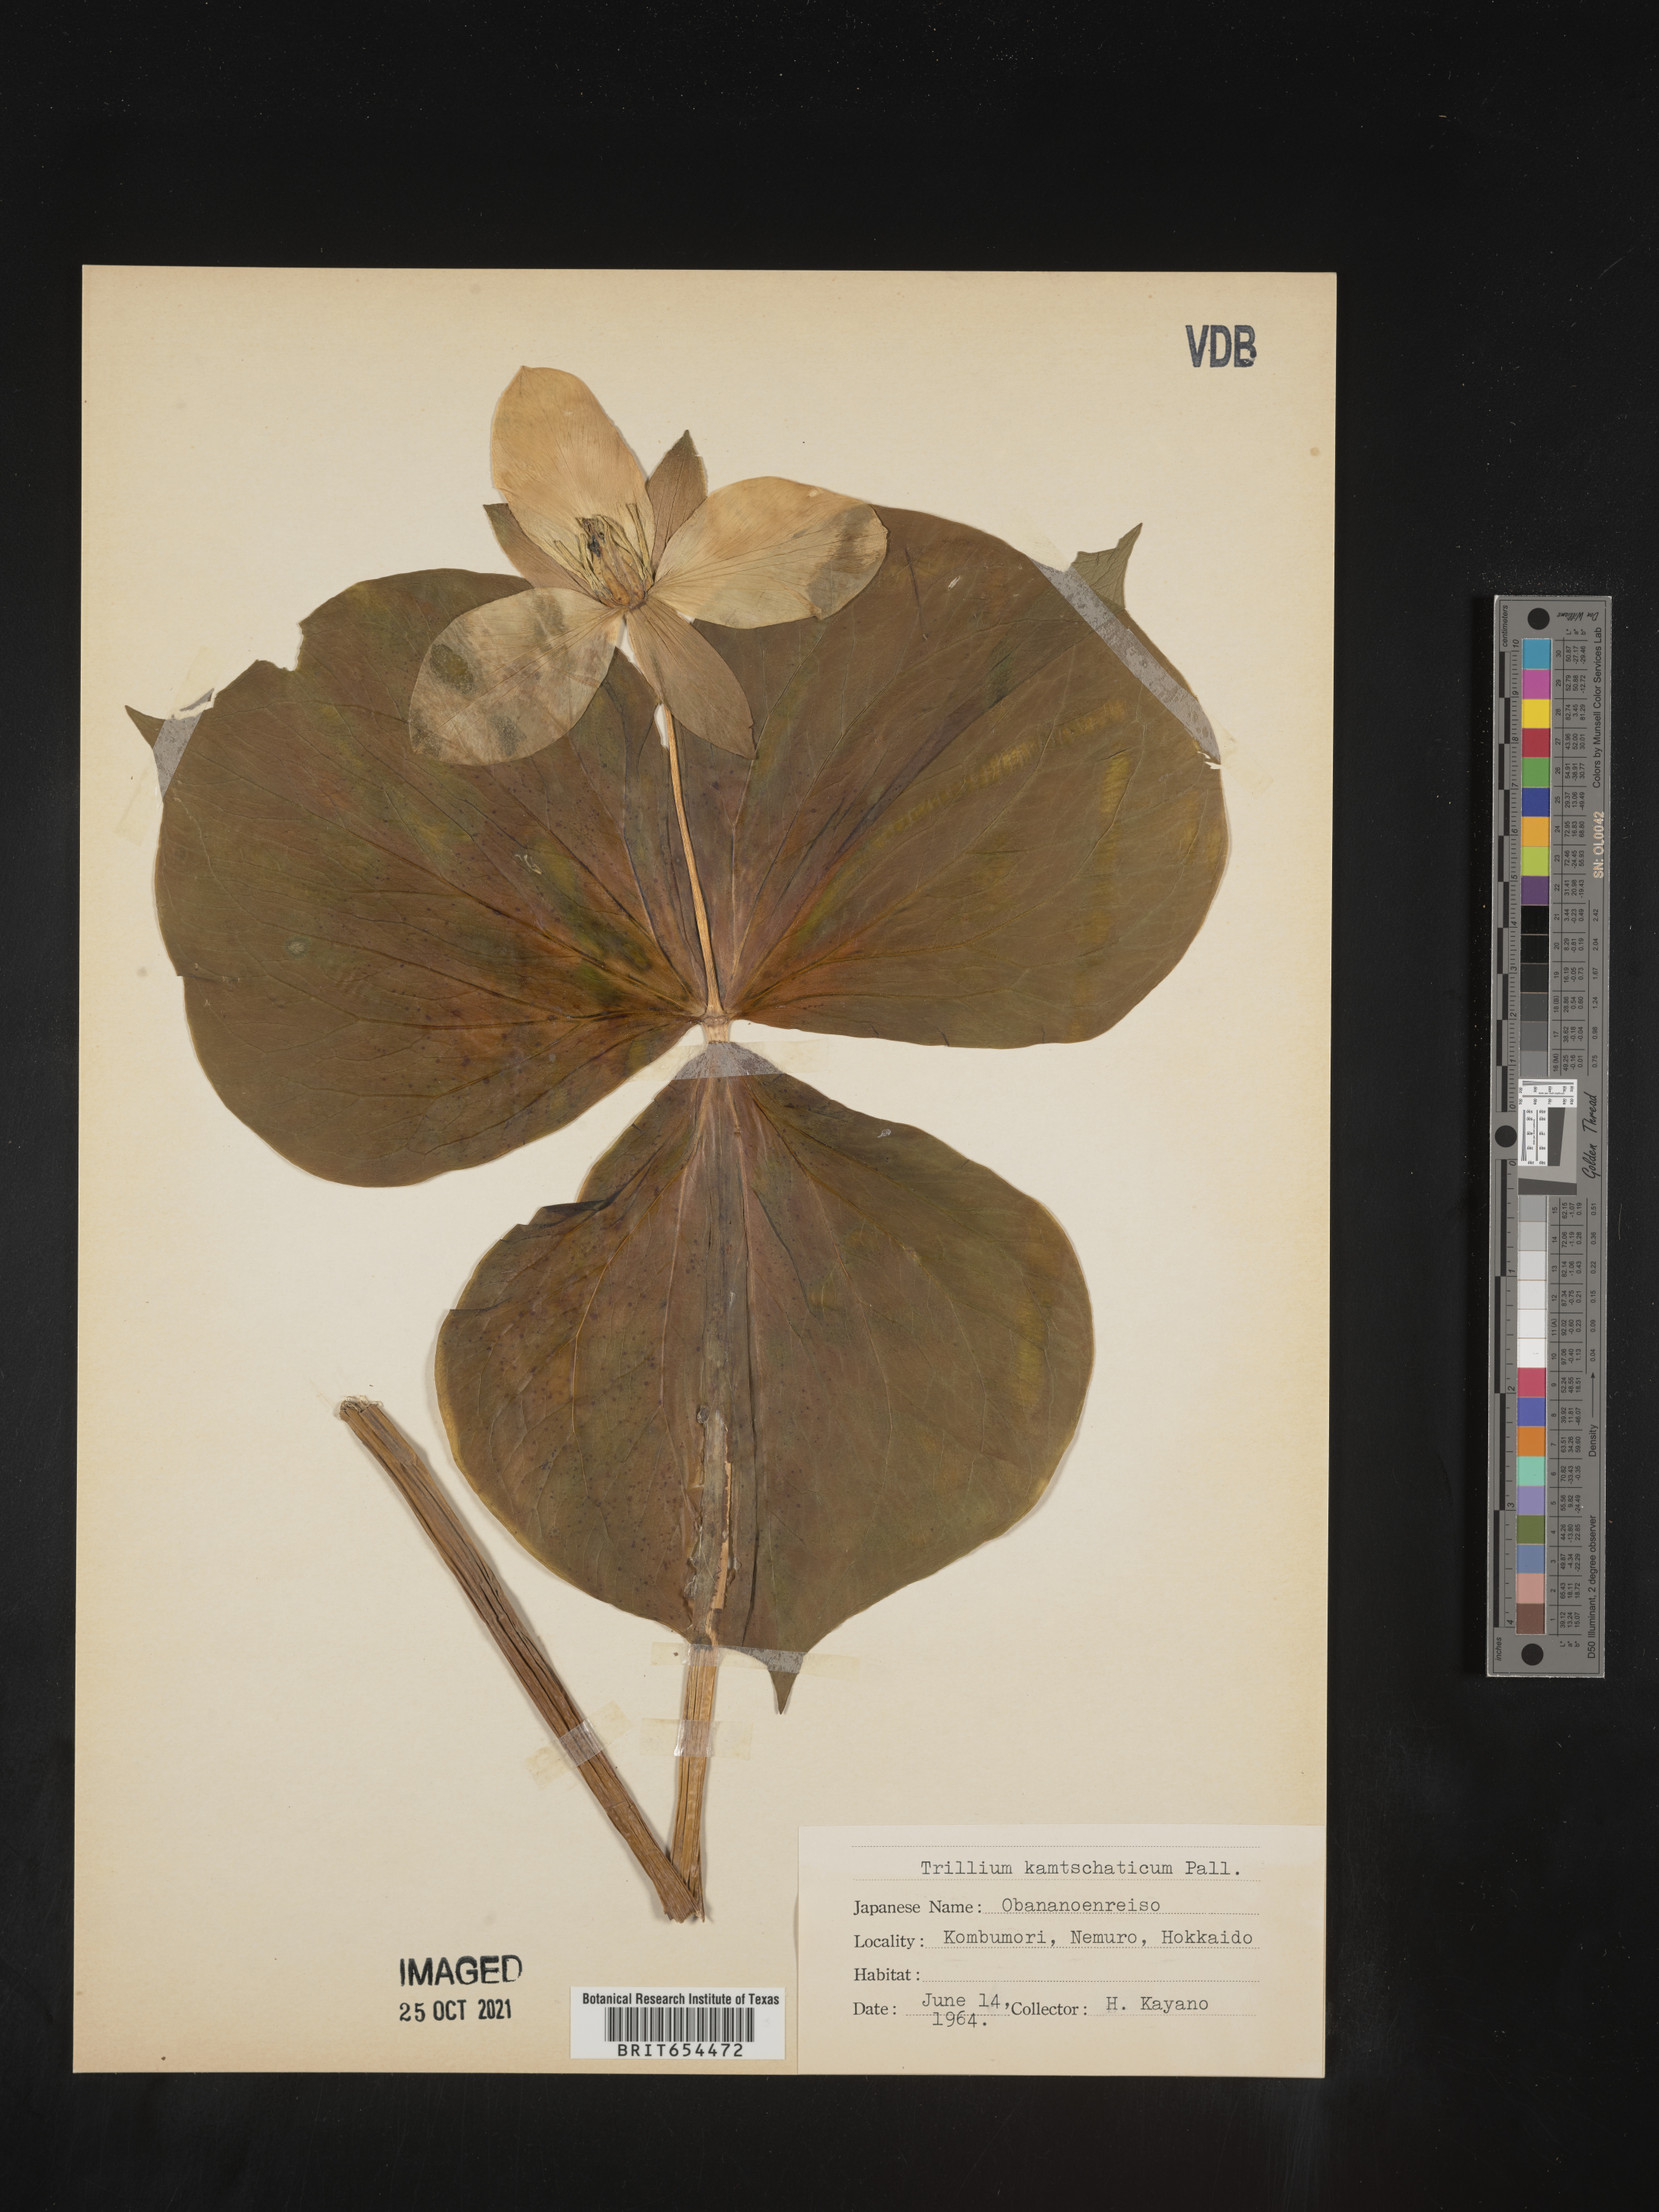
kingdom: Plantae
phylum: Tracheophyta
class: Liliopsida
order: Liliales
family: Melanthiaceae
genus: Trillium
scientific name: Trillium
